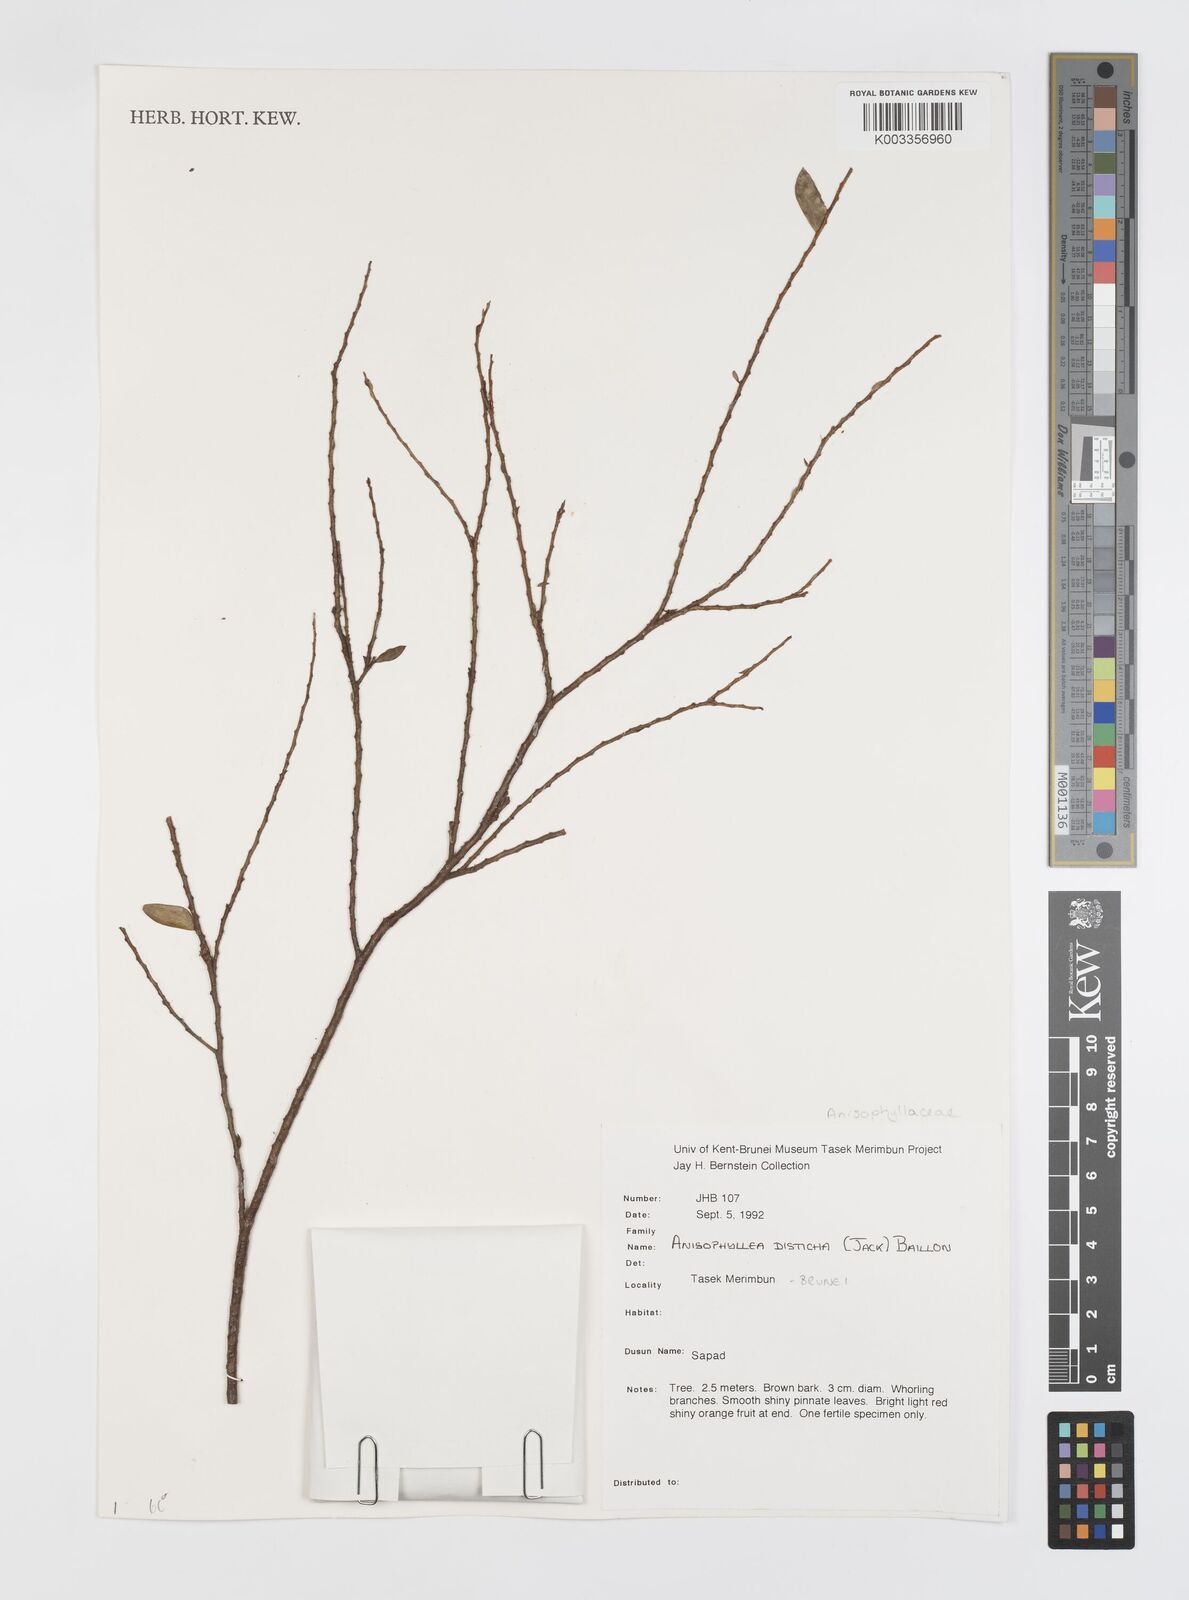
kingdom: Plantae
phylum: Tracheophyta
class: Magnoliopsida
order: Cucurbitales
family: Anisophylleaceae
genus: Anisophyllea
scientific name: Anisophyllea disticha
